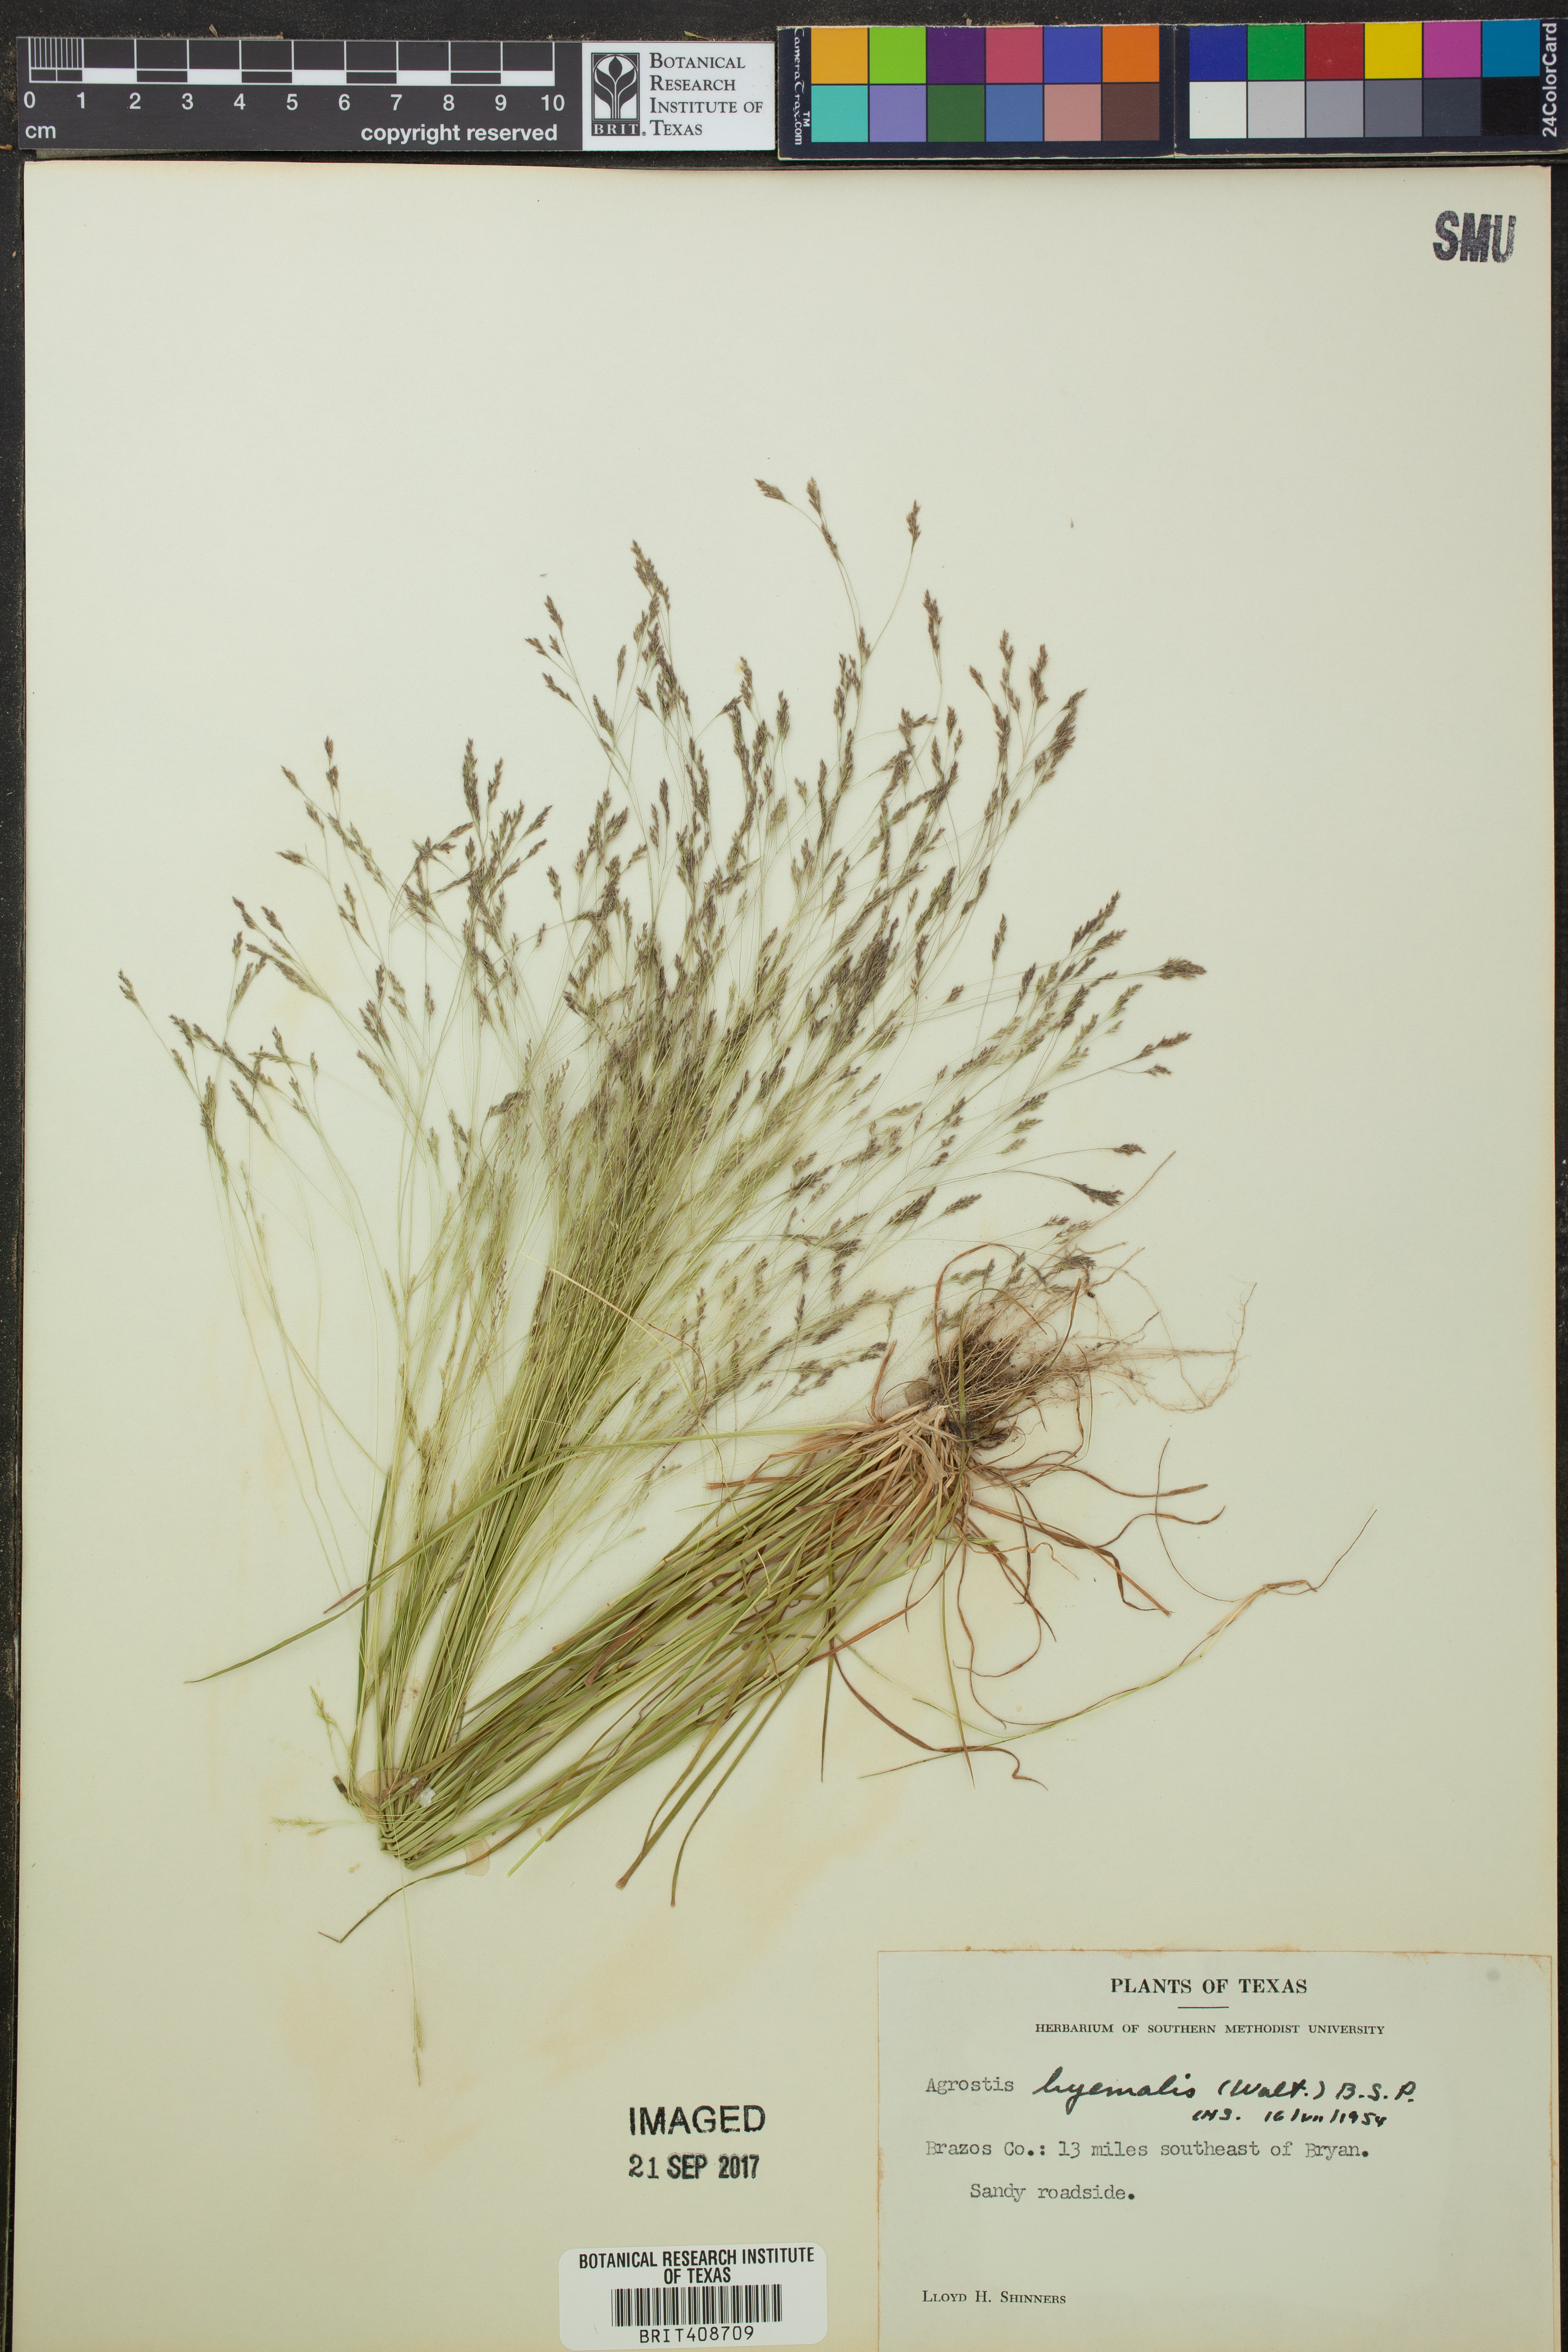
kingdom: Plantae
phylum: Tracheophyta
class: Liliopsida
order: Poales
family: Poaceae
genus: Agrostis
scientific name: Agrostis hyemalis
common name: Small bent
